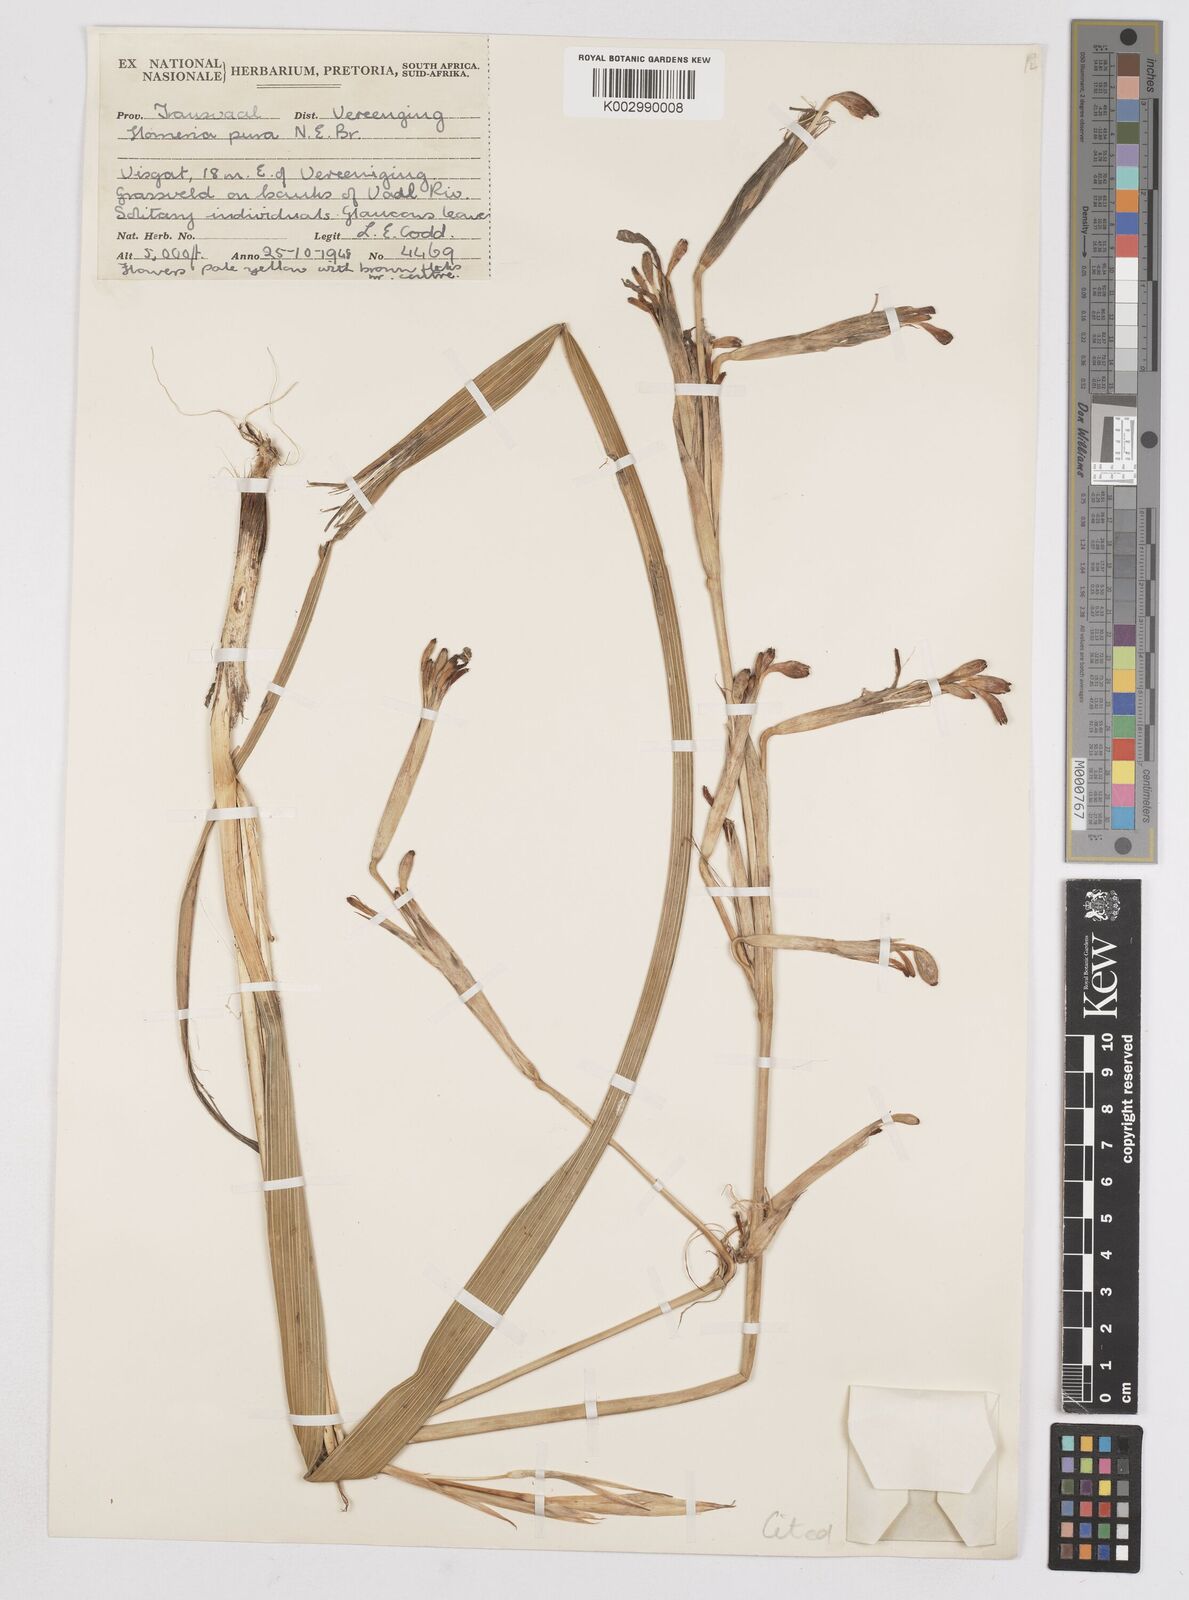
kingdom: Plantae
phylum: Tracheophyta
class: Liliopsida
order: Asparagales
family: Iridaceae
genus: Moraea
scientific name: Moraea pallida
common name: Yellow tulp
